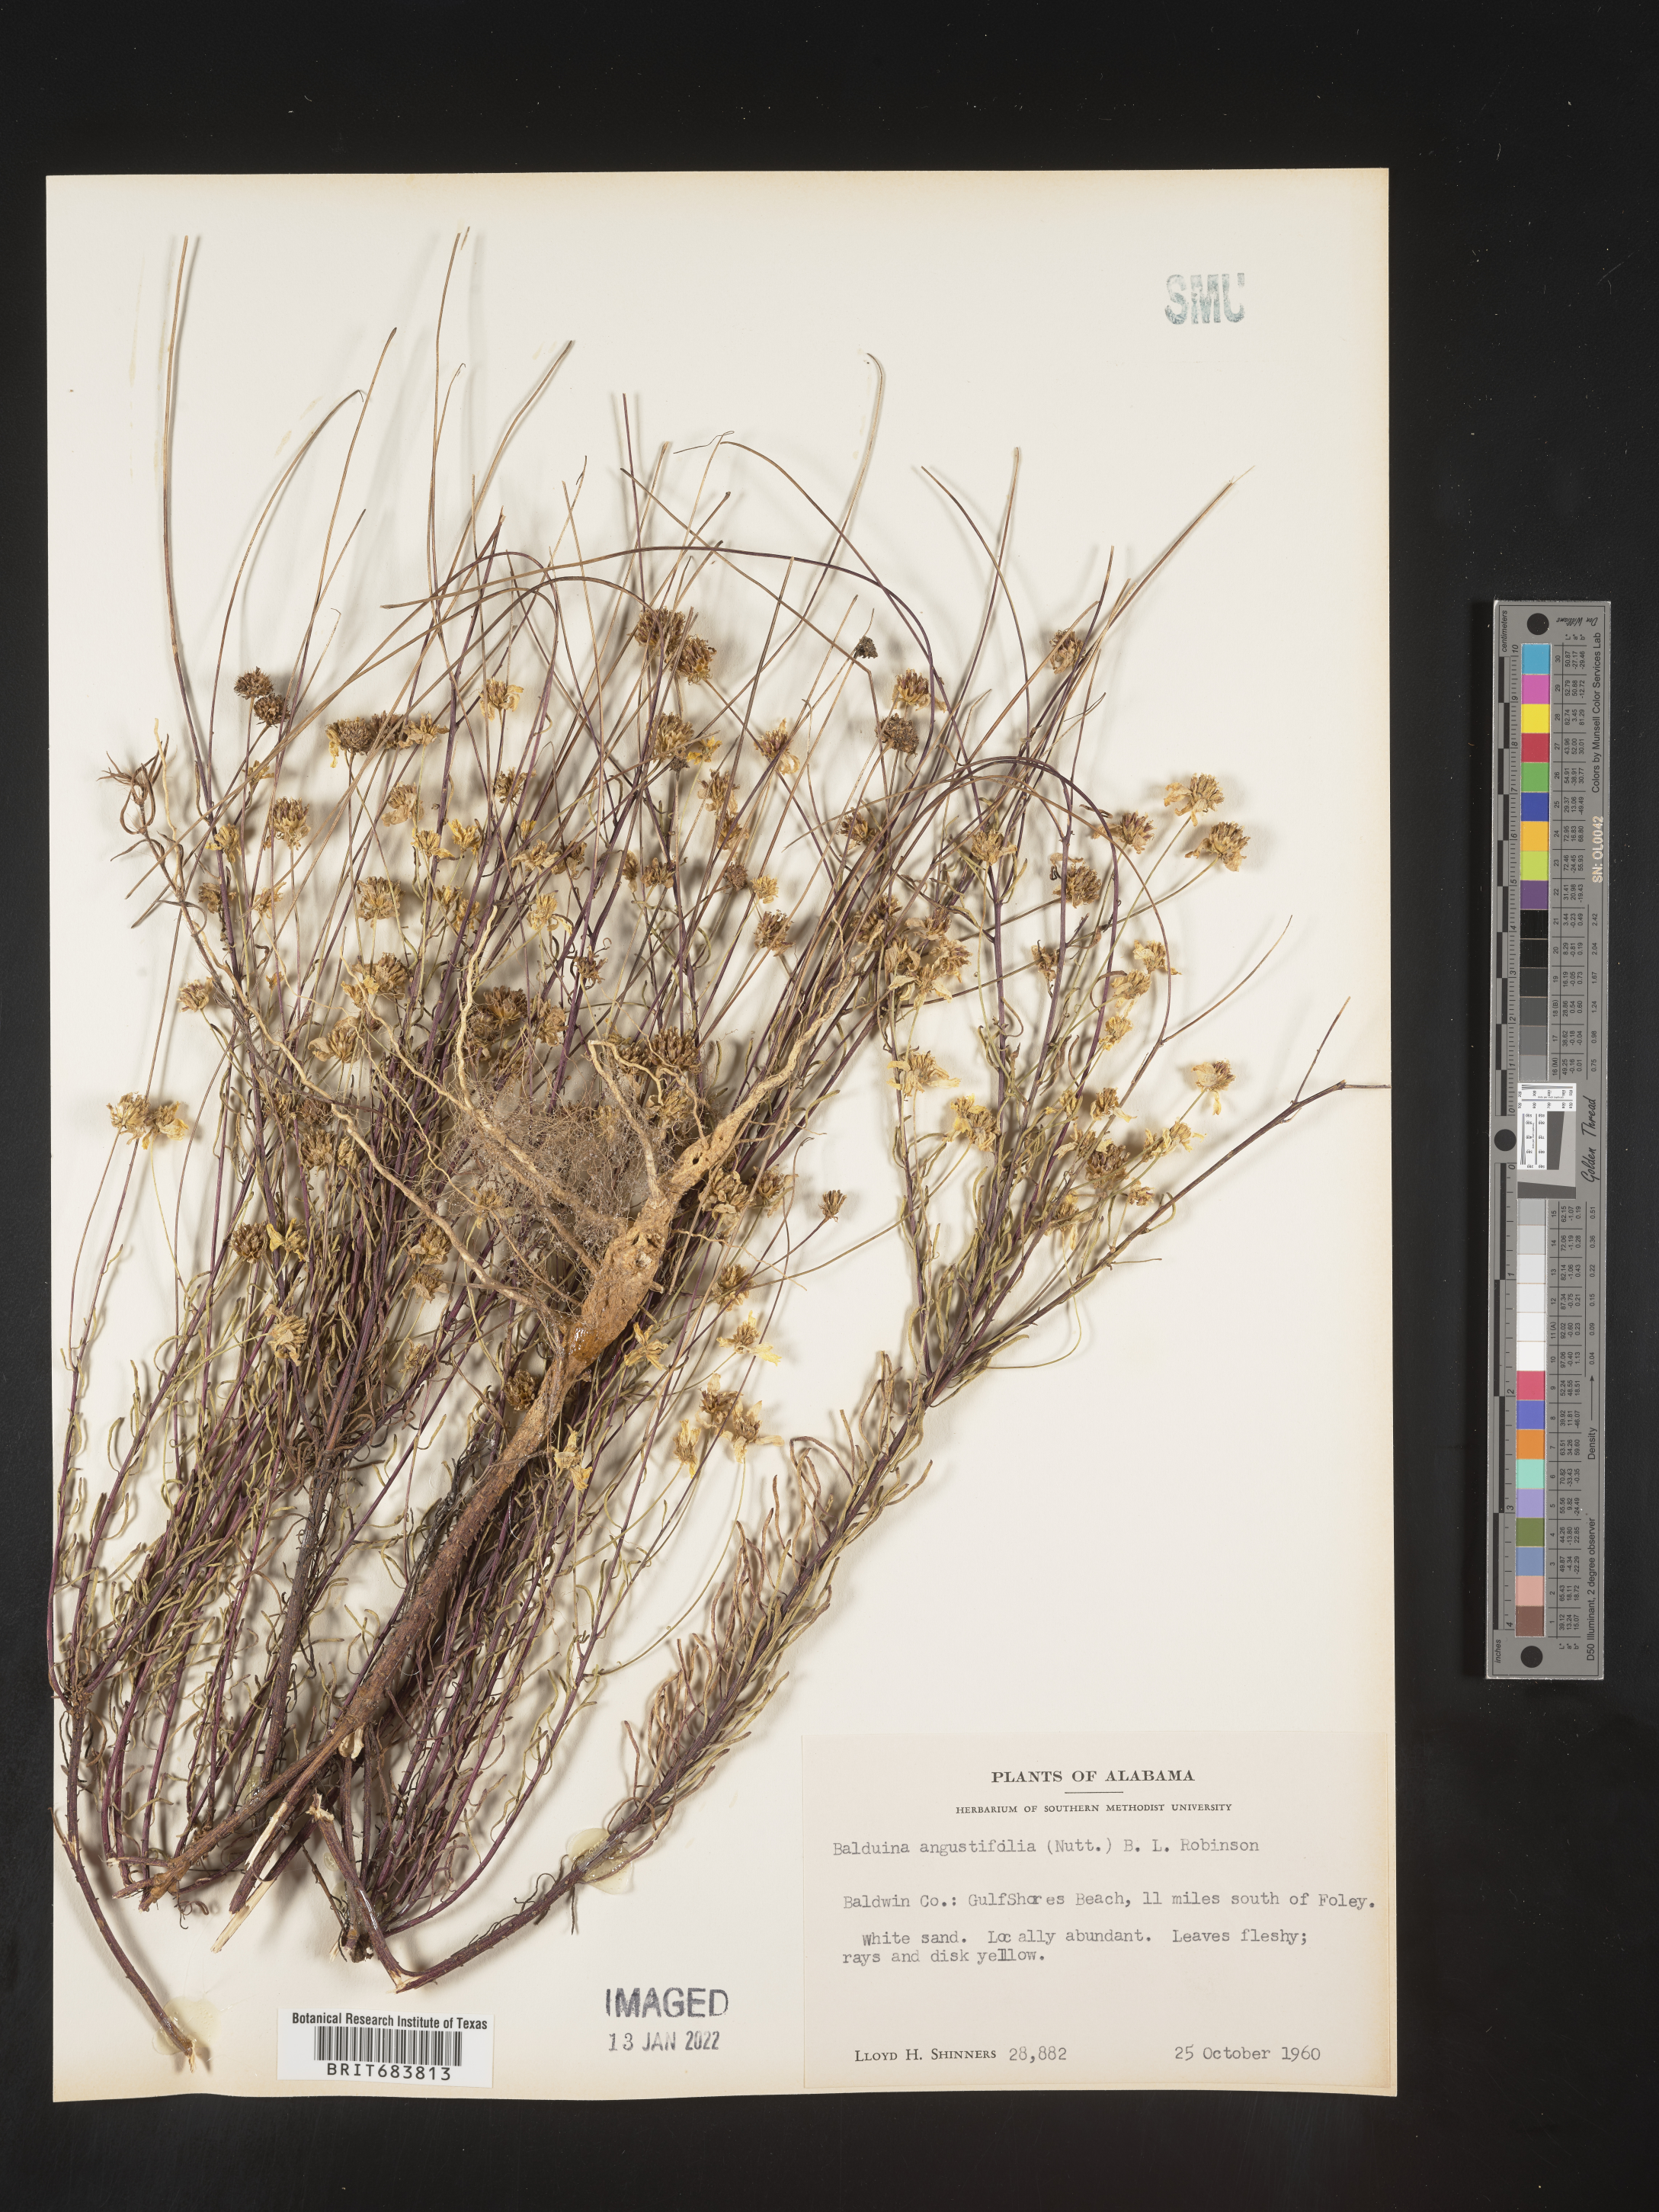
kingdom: Plantae
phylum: Tracheophyta
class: Magnoliopsida
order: Asterales
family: Asteraceae
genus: Balduina
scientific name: Balduina angustifolia
